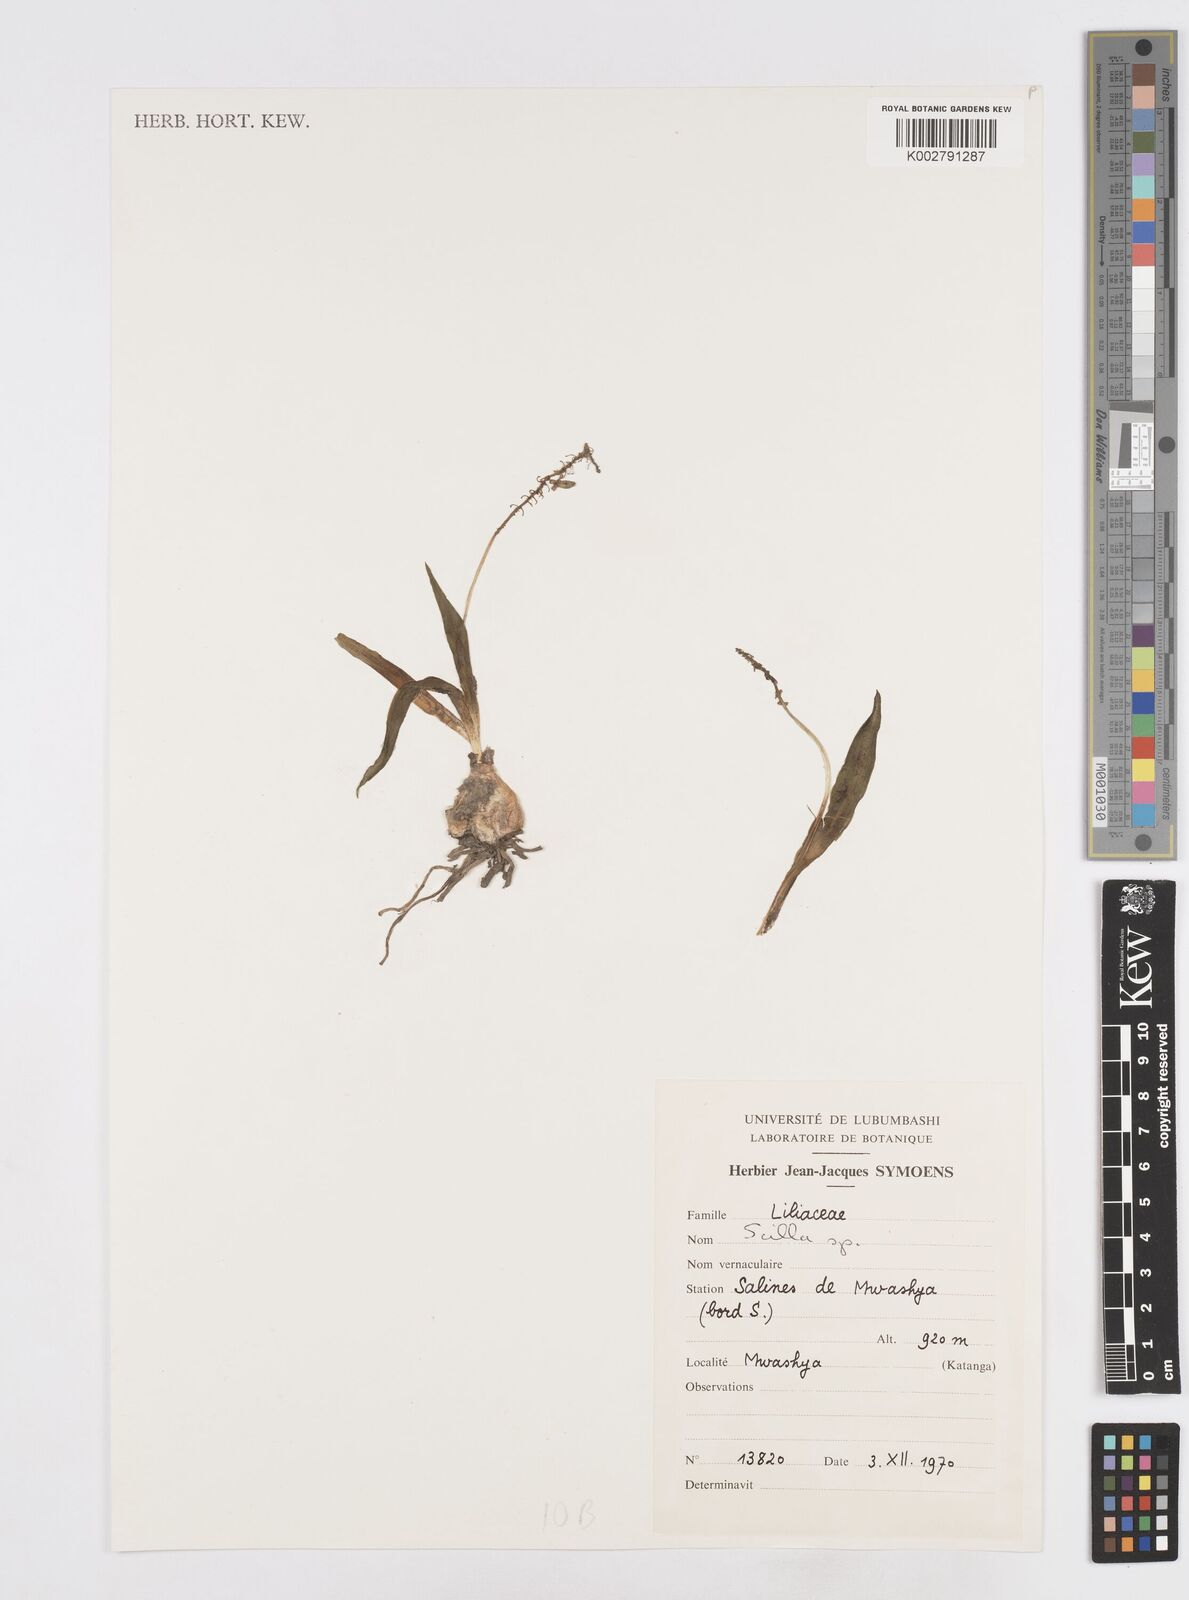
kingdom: Plantae
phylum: Tracheophyta
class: Liliopsida
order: Asparagales
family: Asparagaceae
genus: Scilla
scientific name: Scilla
